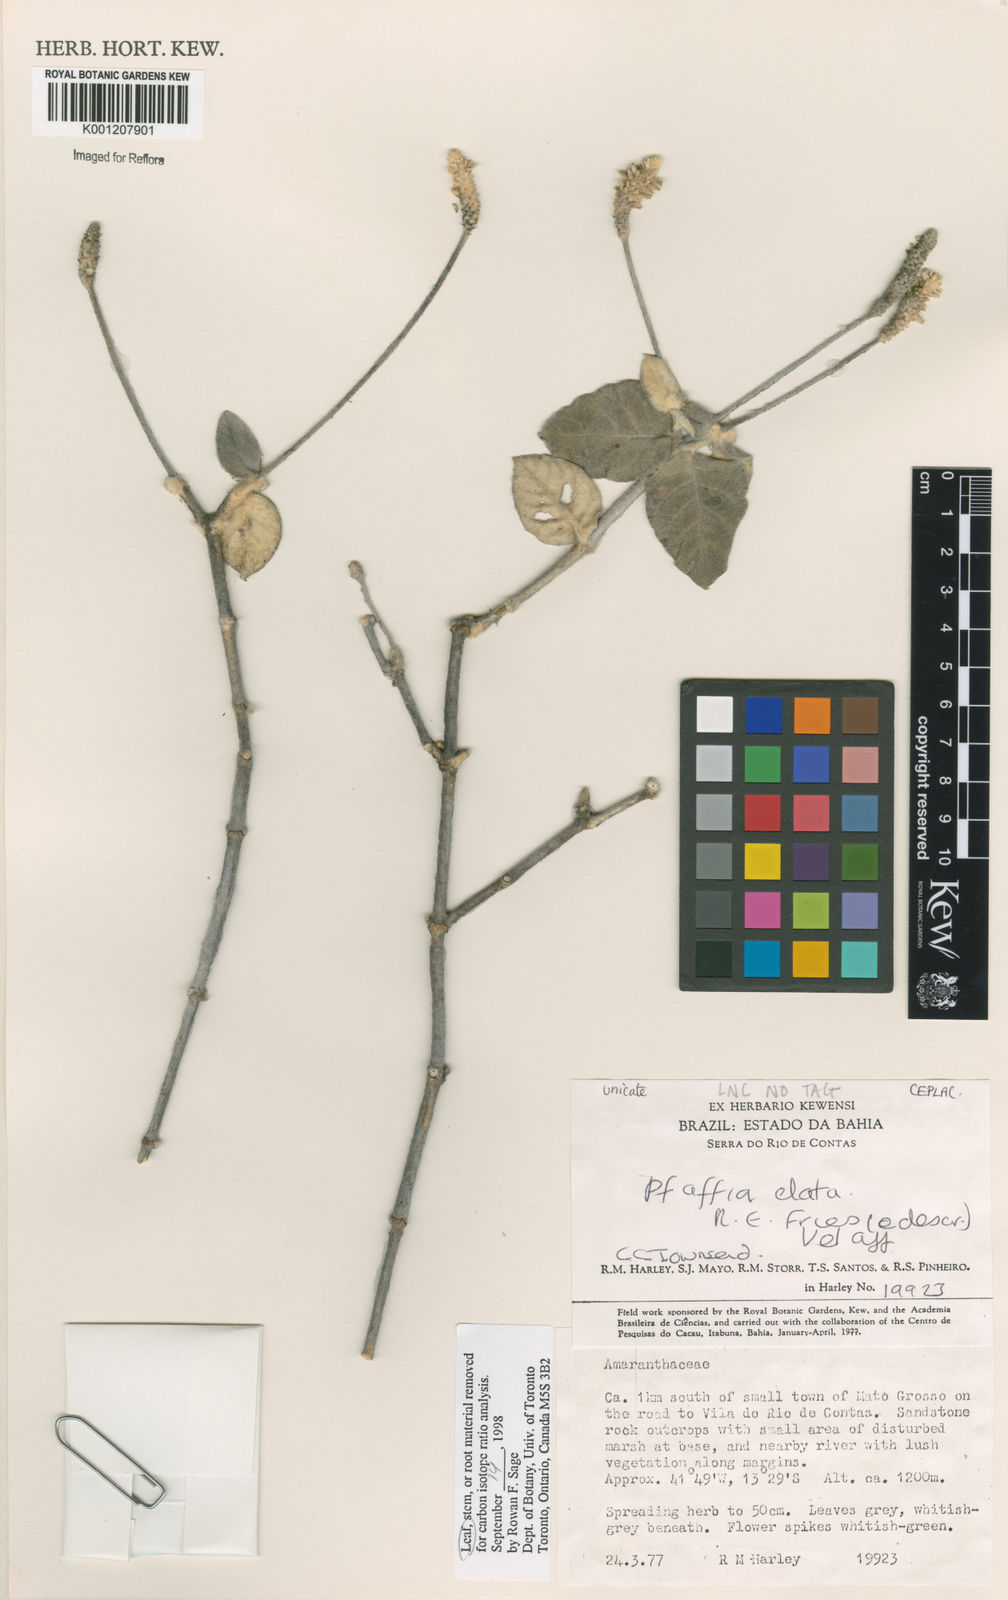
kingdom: Plantae
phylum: Tracheophyta
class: Magnoliopsida
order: Caryophyllales
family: Amaranthaceae
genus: Pfaffia
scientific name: Pfaffia elata
